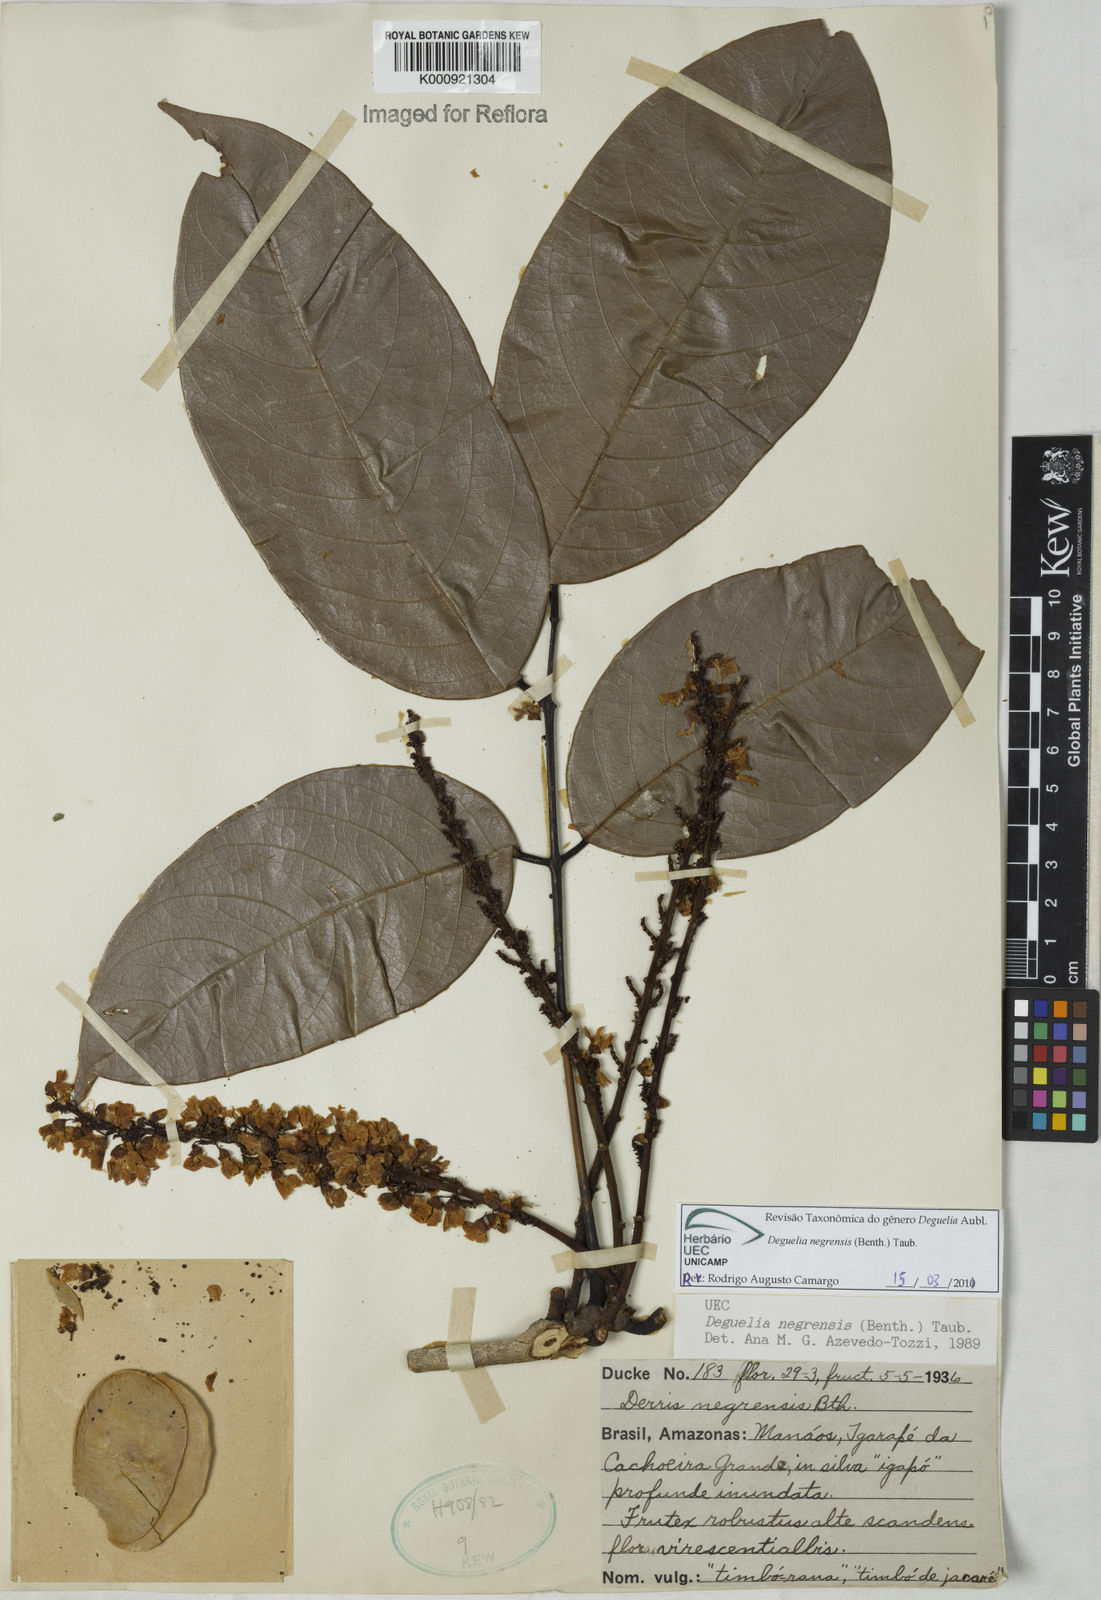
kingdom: Plantae
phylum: Tracheophyta
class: Magnoliopsida
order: Fabales
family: Fabaceae
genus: Deguelia
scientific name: Deguelia negrensis
